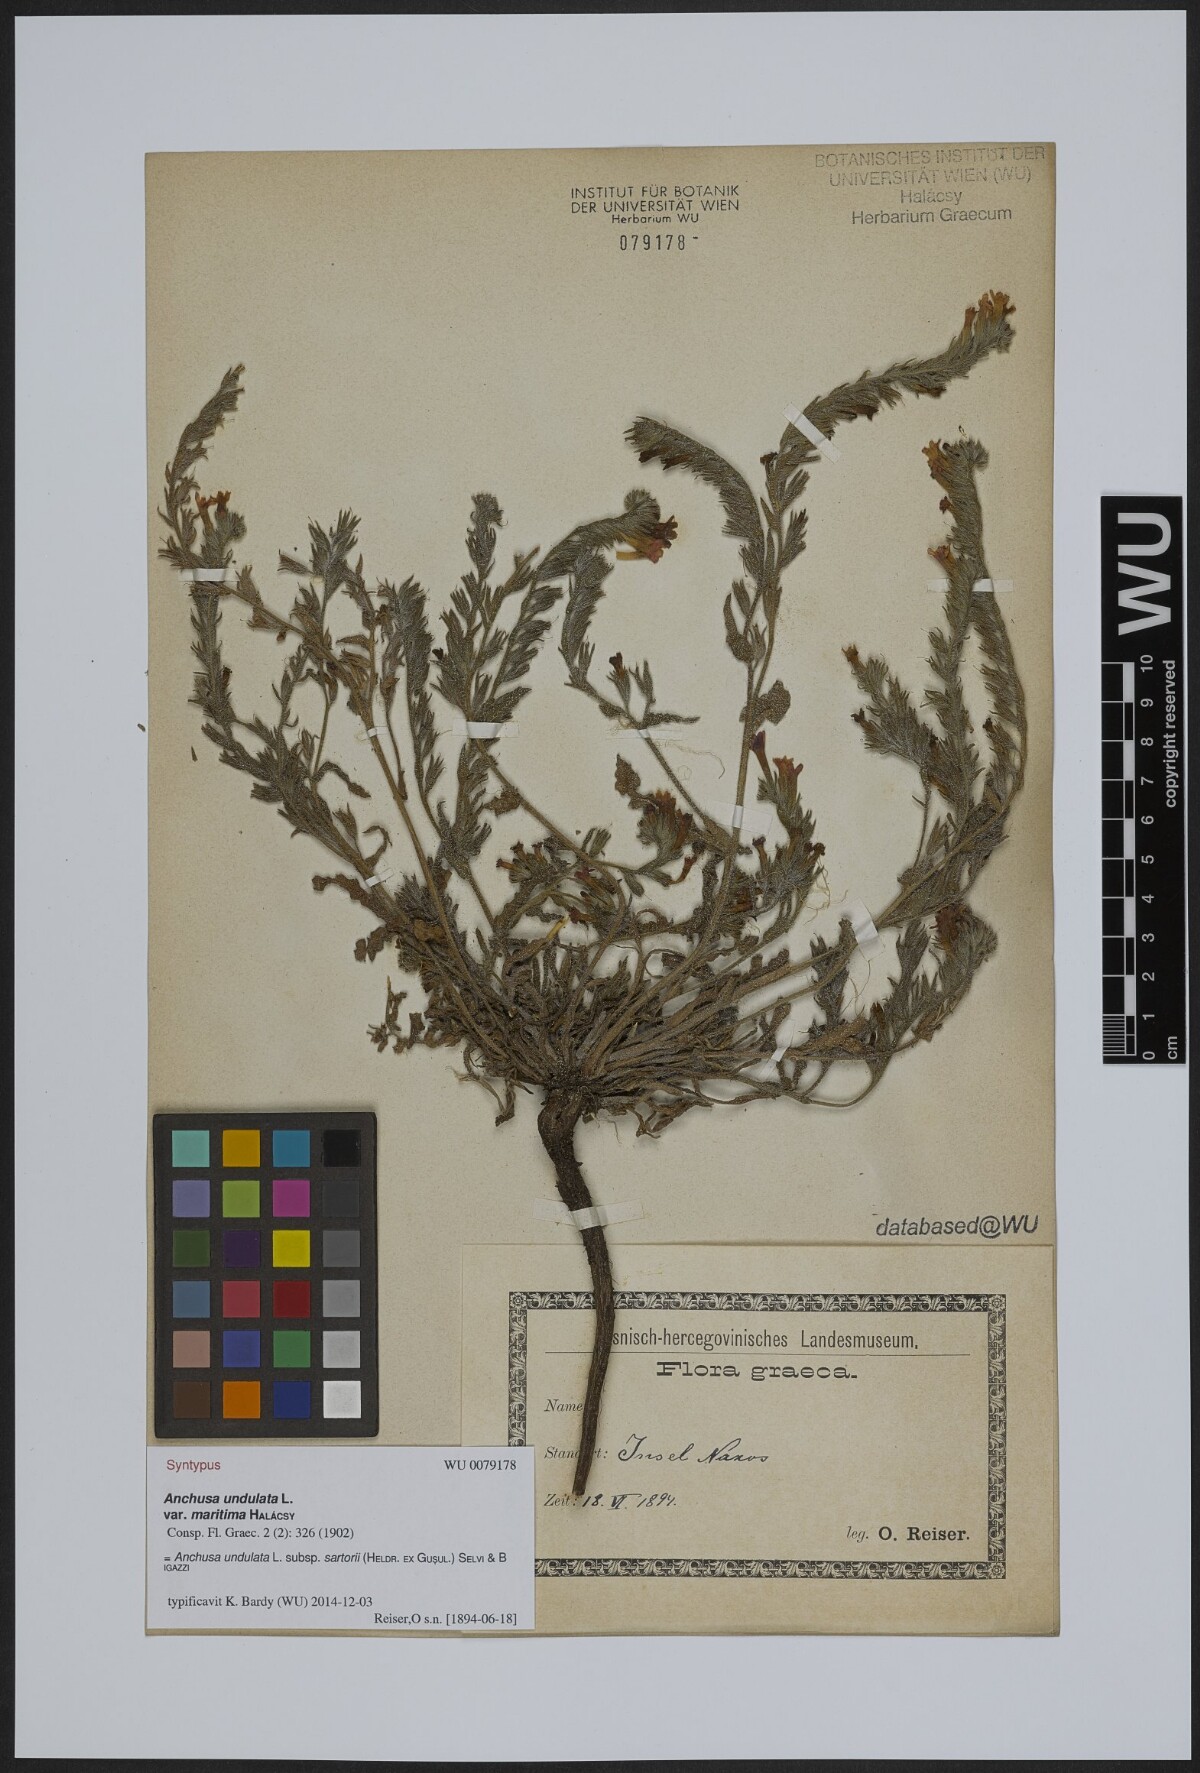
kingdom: Plantae
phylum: Tracheophyta
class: Magnoliopsida
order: Boraginales
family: Boraginaceae
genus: Anchusa
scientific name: Anchusa undulata
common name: Undulate alkanet
